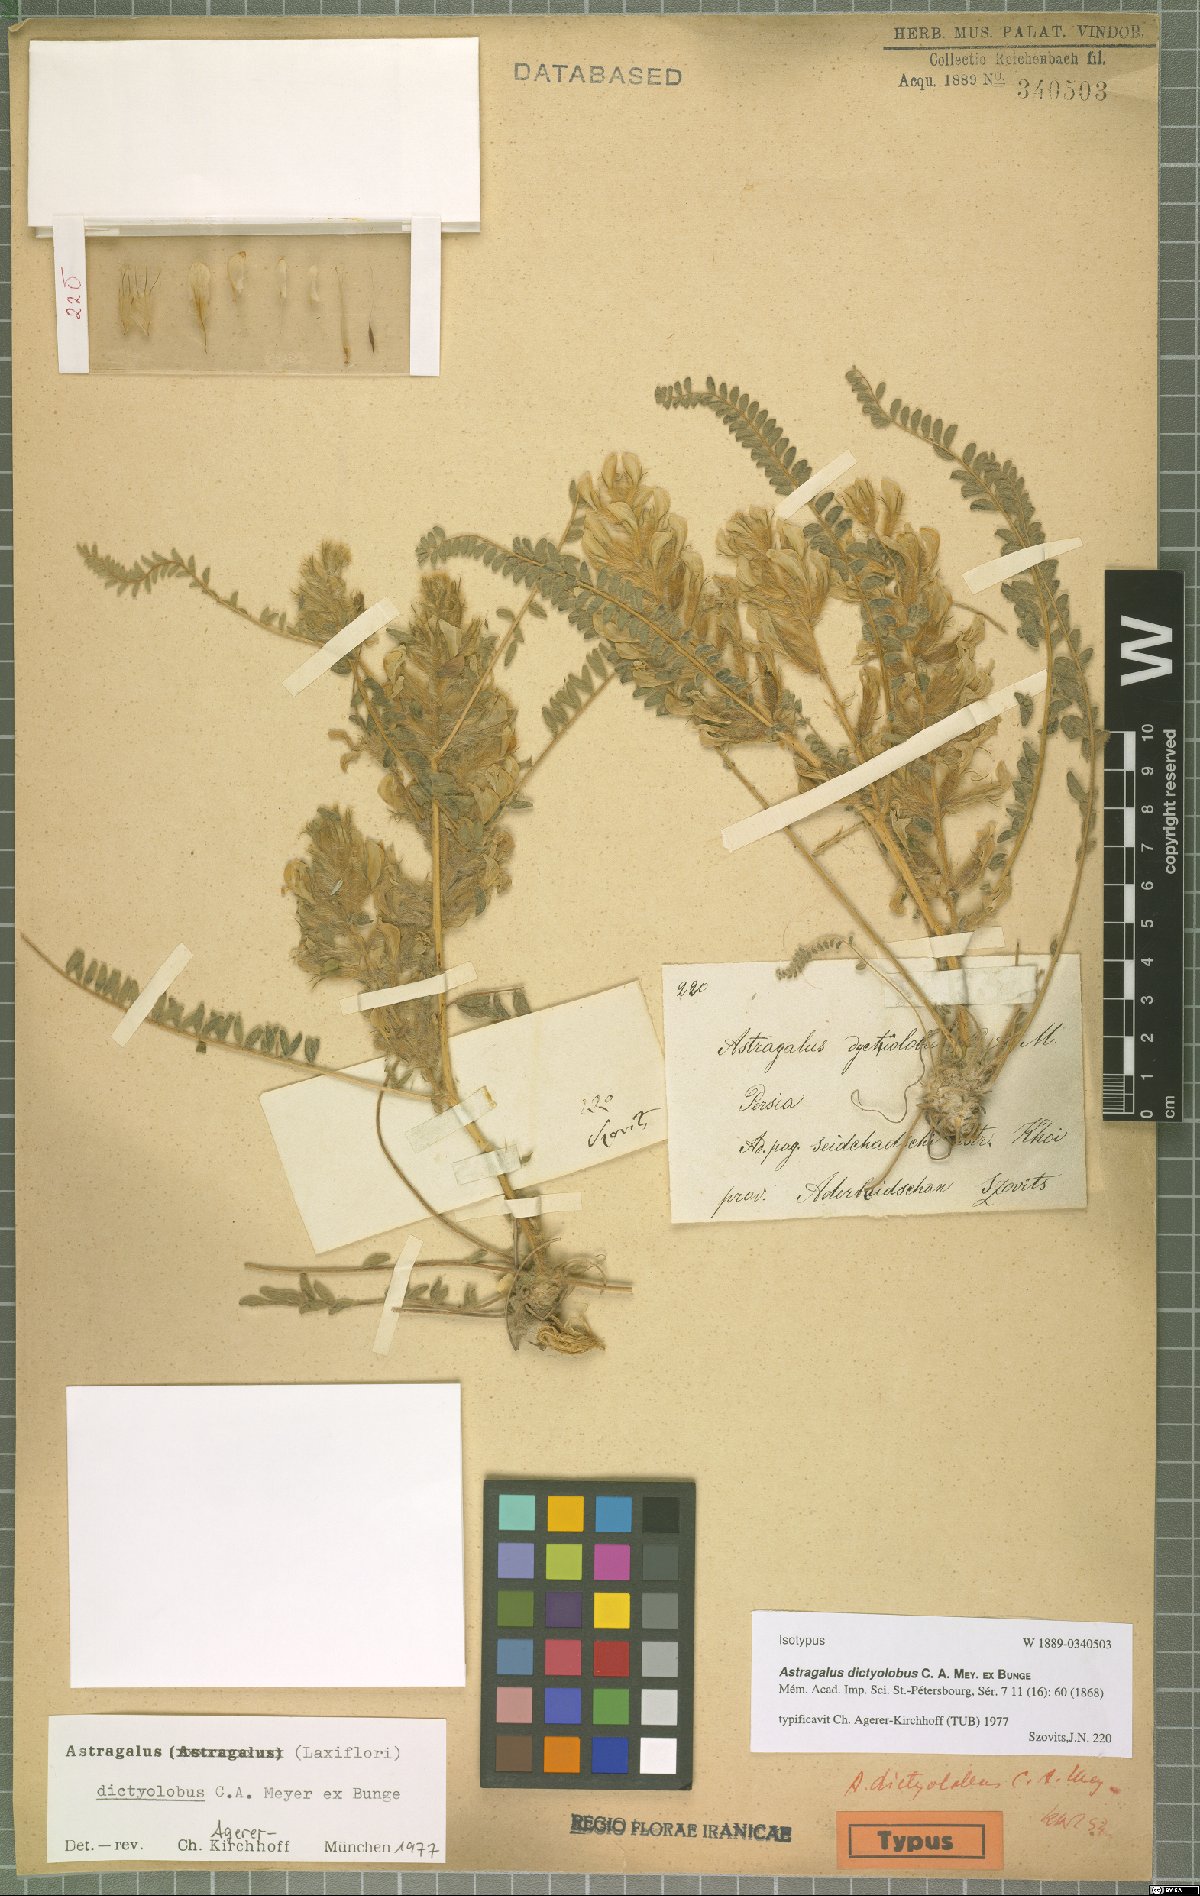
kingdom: Plantae
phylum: Tracheophyta
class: Magnoliopsida
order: Fabales
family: Fabaceae
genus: Astragalus
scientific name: Astragalus dictyolobus
